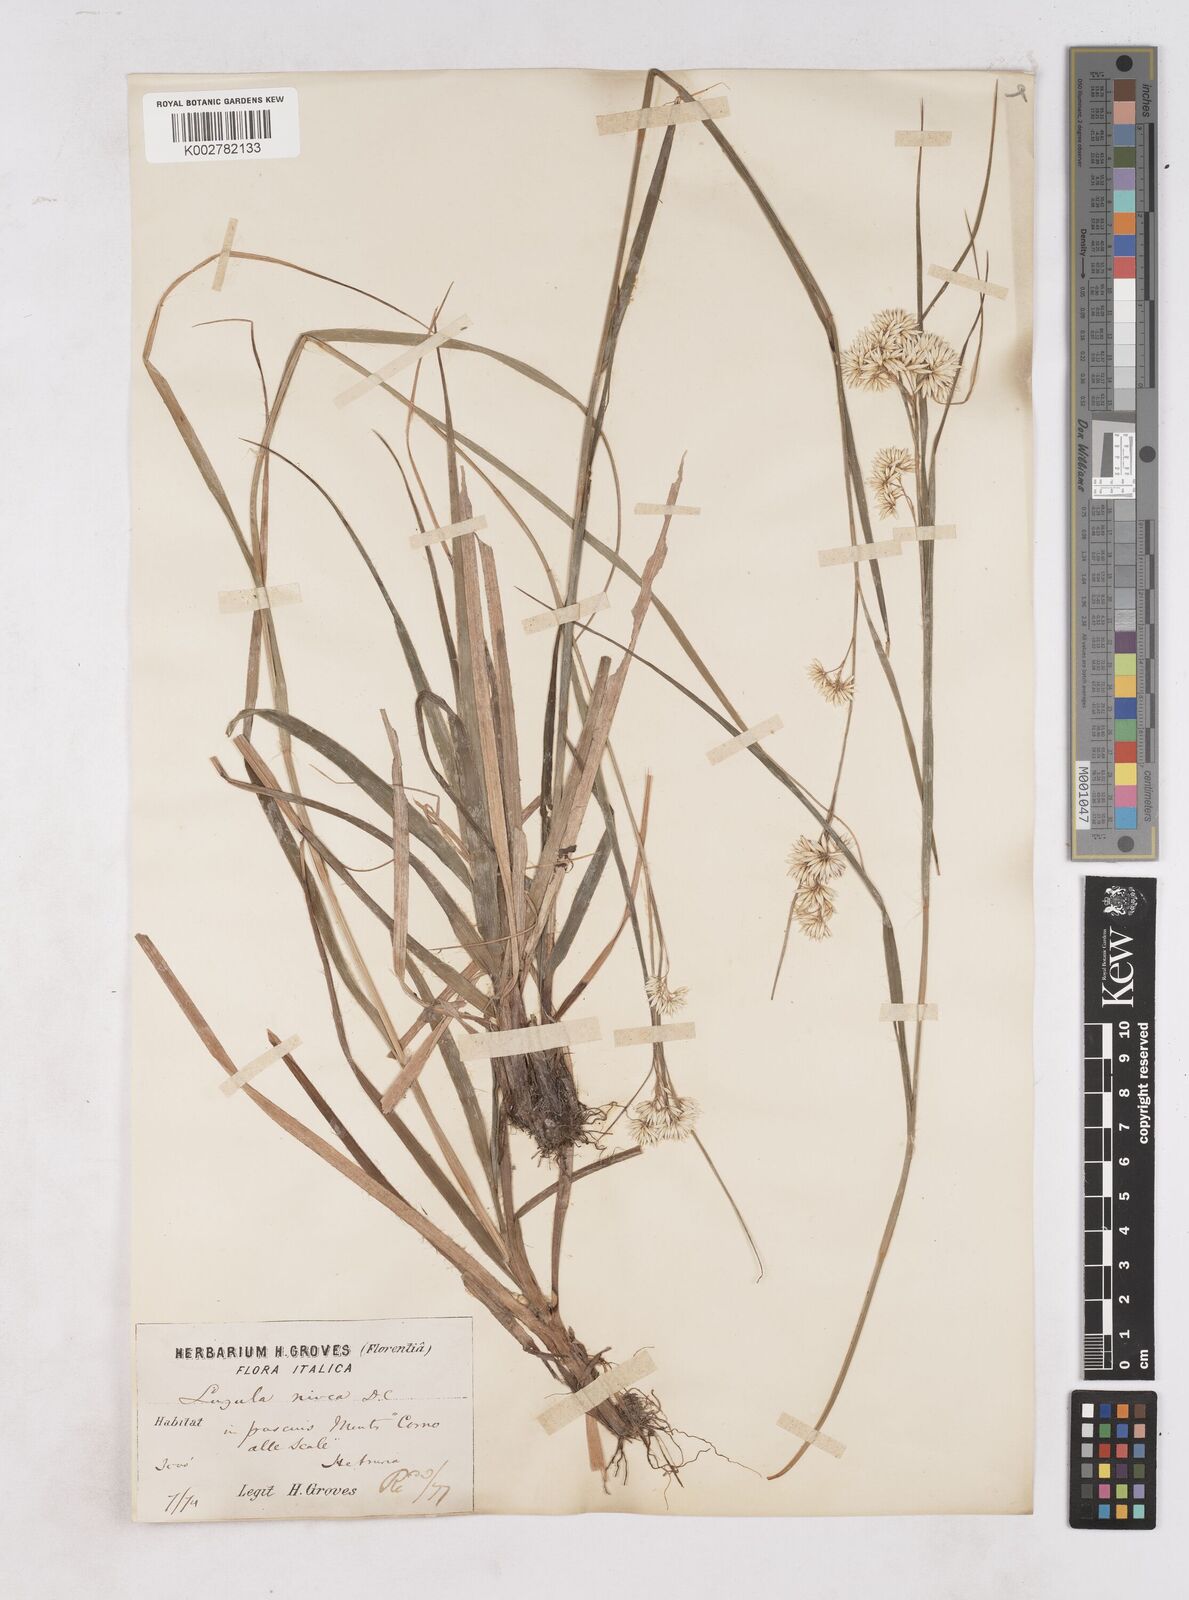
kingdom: Plantae
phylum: Tracheophyta
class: Liliopsida
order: Poales
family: Juncaceae
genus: Luzula
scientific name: Luzula nivea
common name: Snow-white wood-rush
